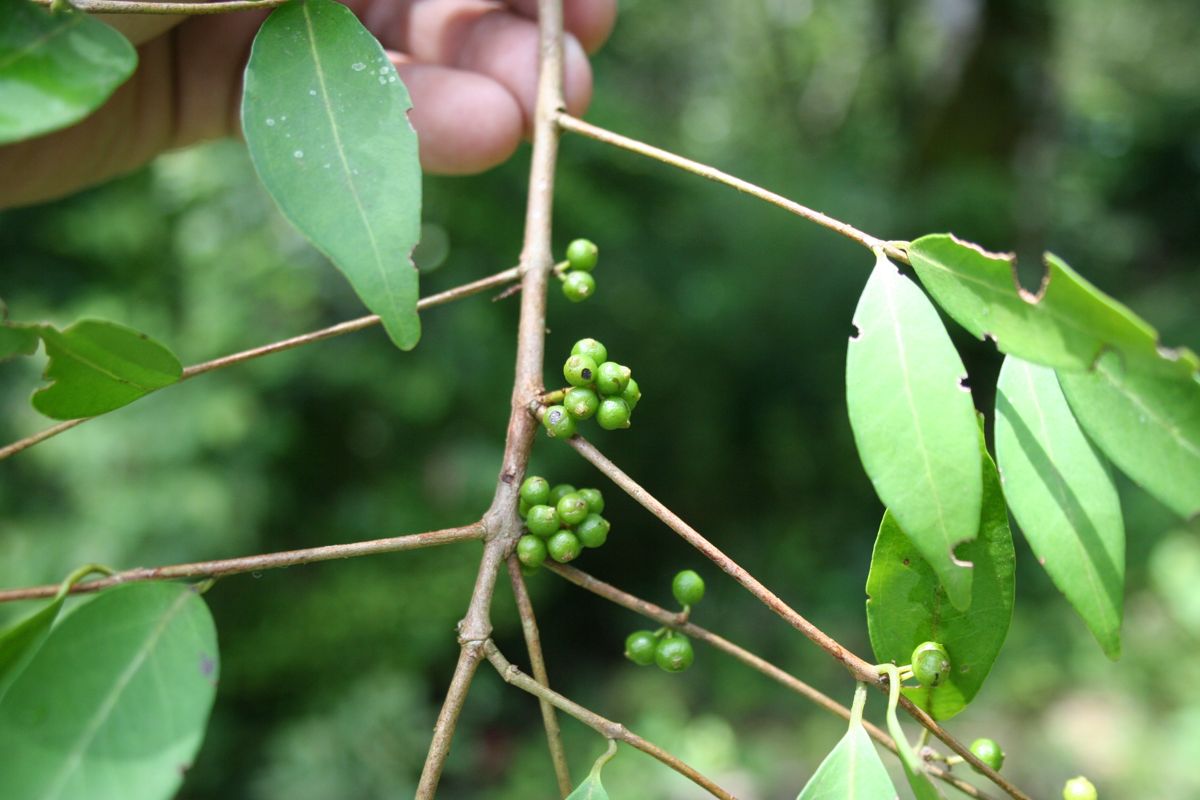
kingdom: Plantae
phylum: Tracheophyta
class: Magnoliopsida
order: Myrtales
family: Myrtaceae
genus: Eugenia
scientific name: Eugenia acapulcensis
